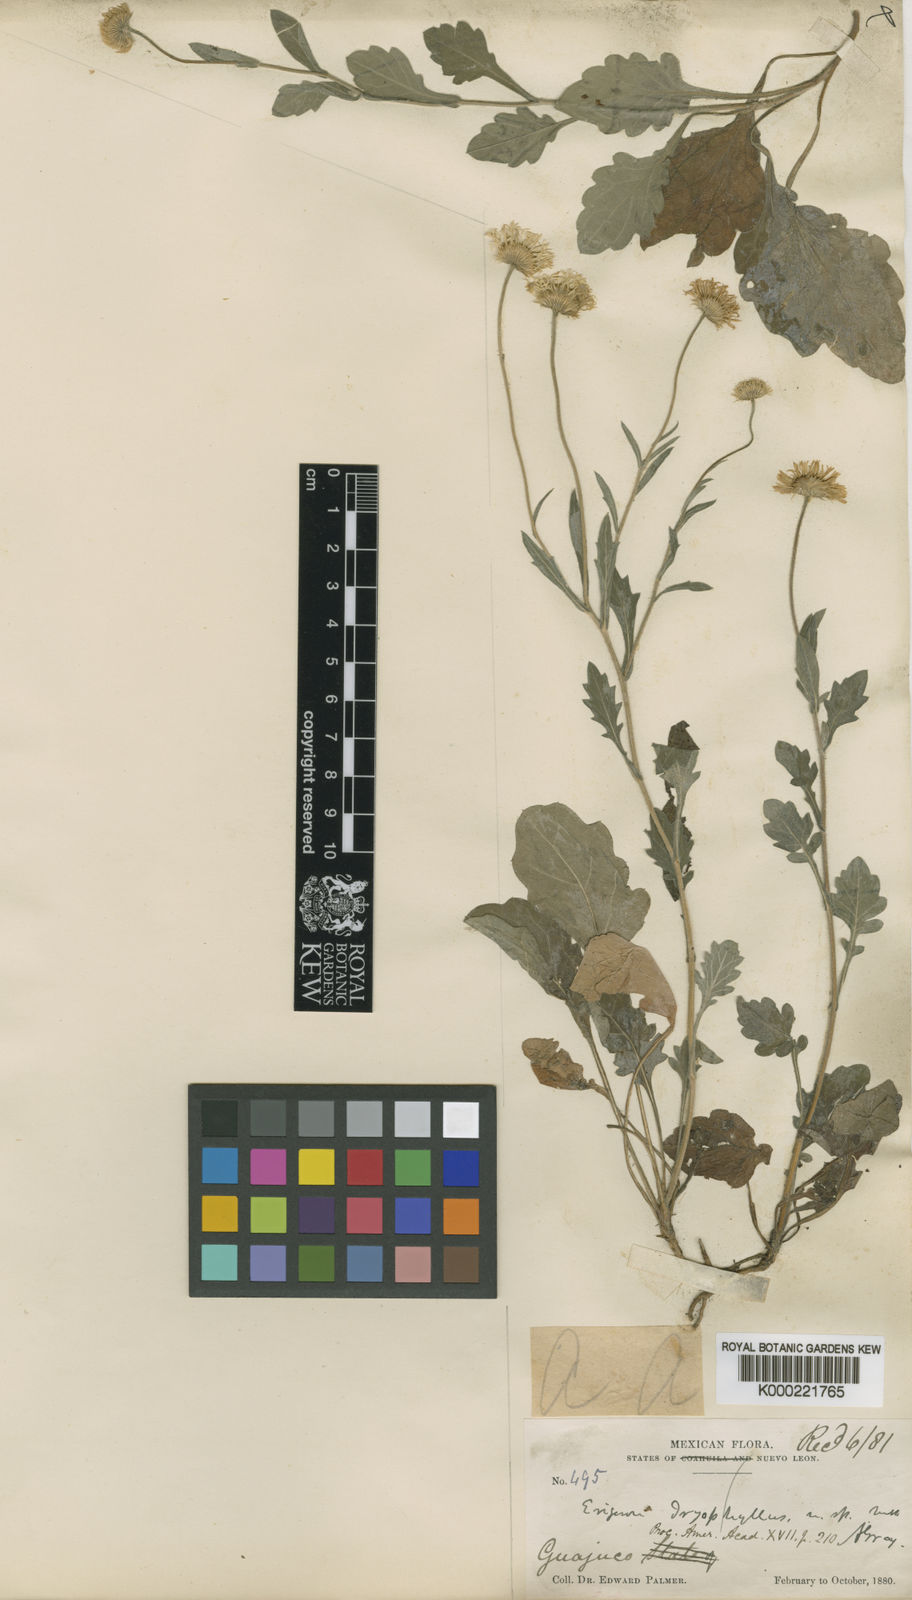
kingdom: Plantae
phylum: Tracheophyta
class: Magnoliopsida
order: Asterales
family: Asteraceae
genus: Erigeron
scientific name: Erigeron dryophyllus
